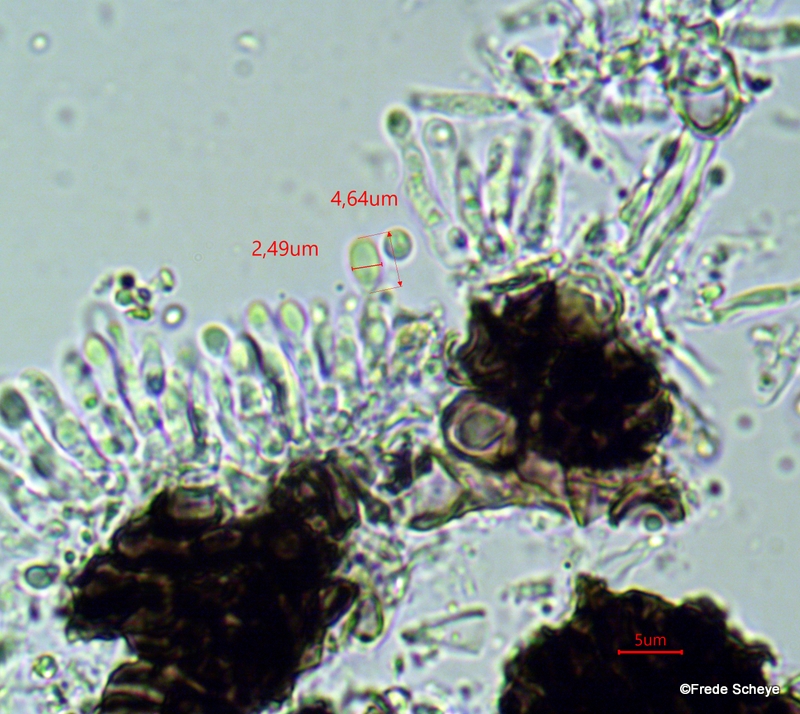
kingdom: Fungi
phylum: Ascomycota
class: Dothideomycetes
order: Pleosporales
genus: Rhopographus
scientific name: Rhopographus filicinus
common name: Bracken map
